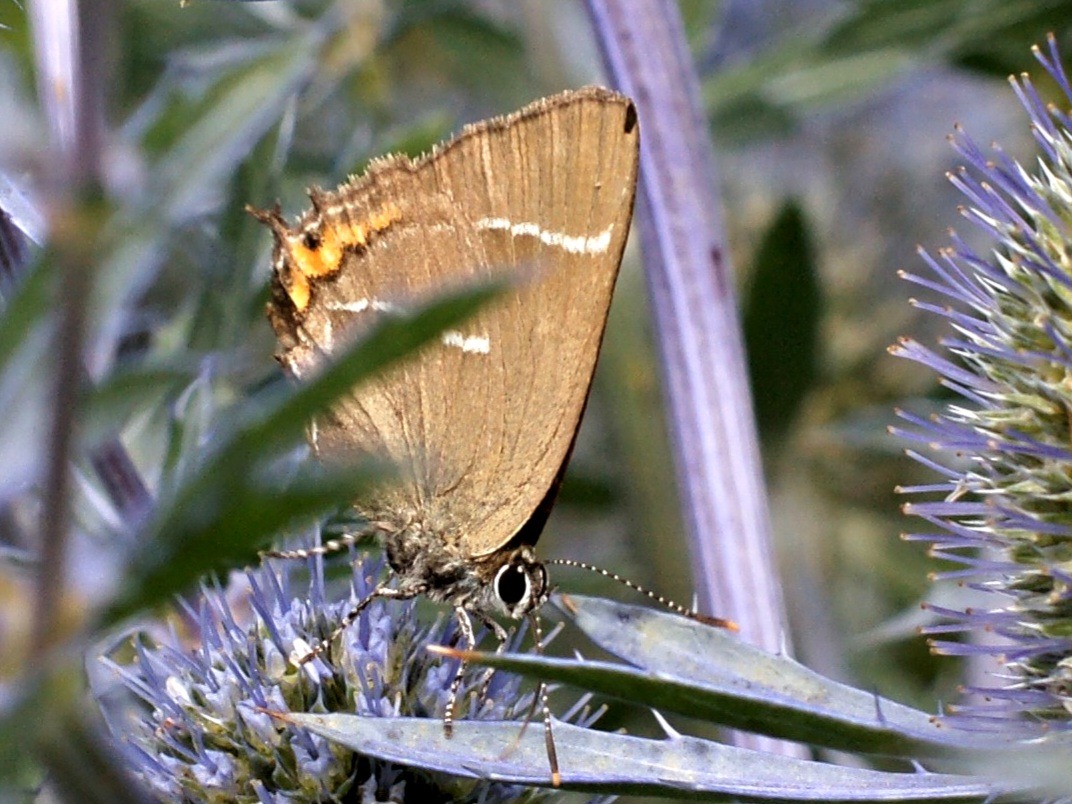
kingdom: Animalia
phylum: Arthropoda
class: Insecta
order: Lepidoptera
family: Lycaenidae
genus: Satyrium
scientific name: Satyrium w-album
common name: Det hvide W
